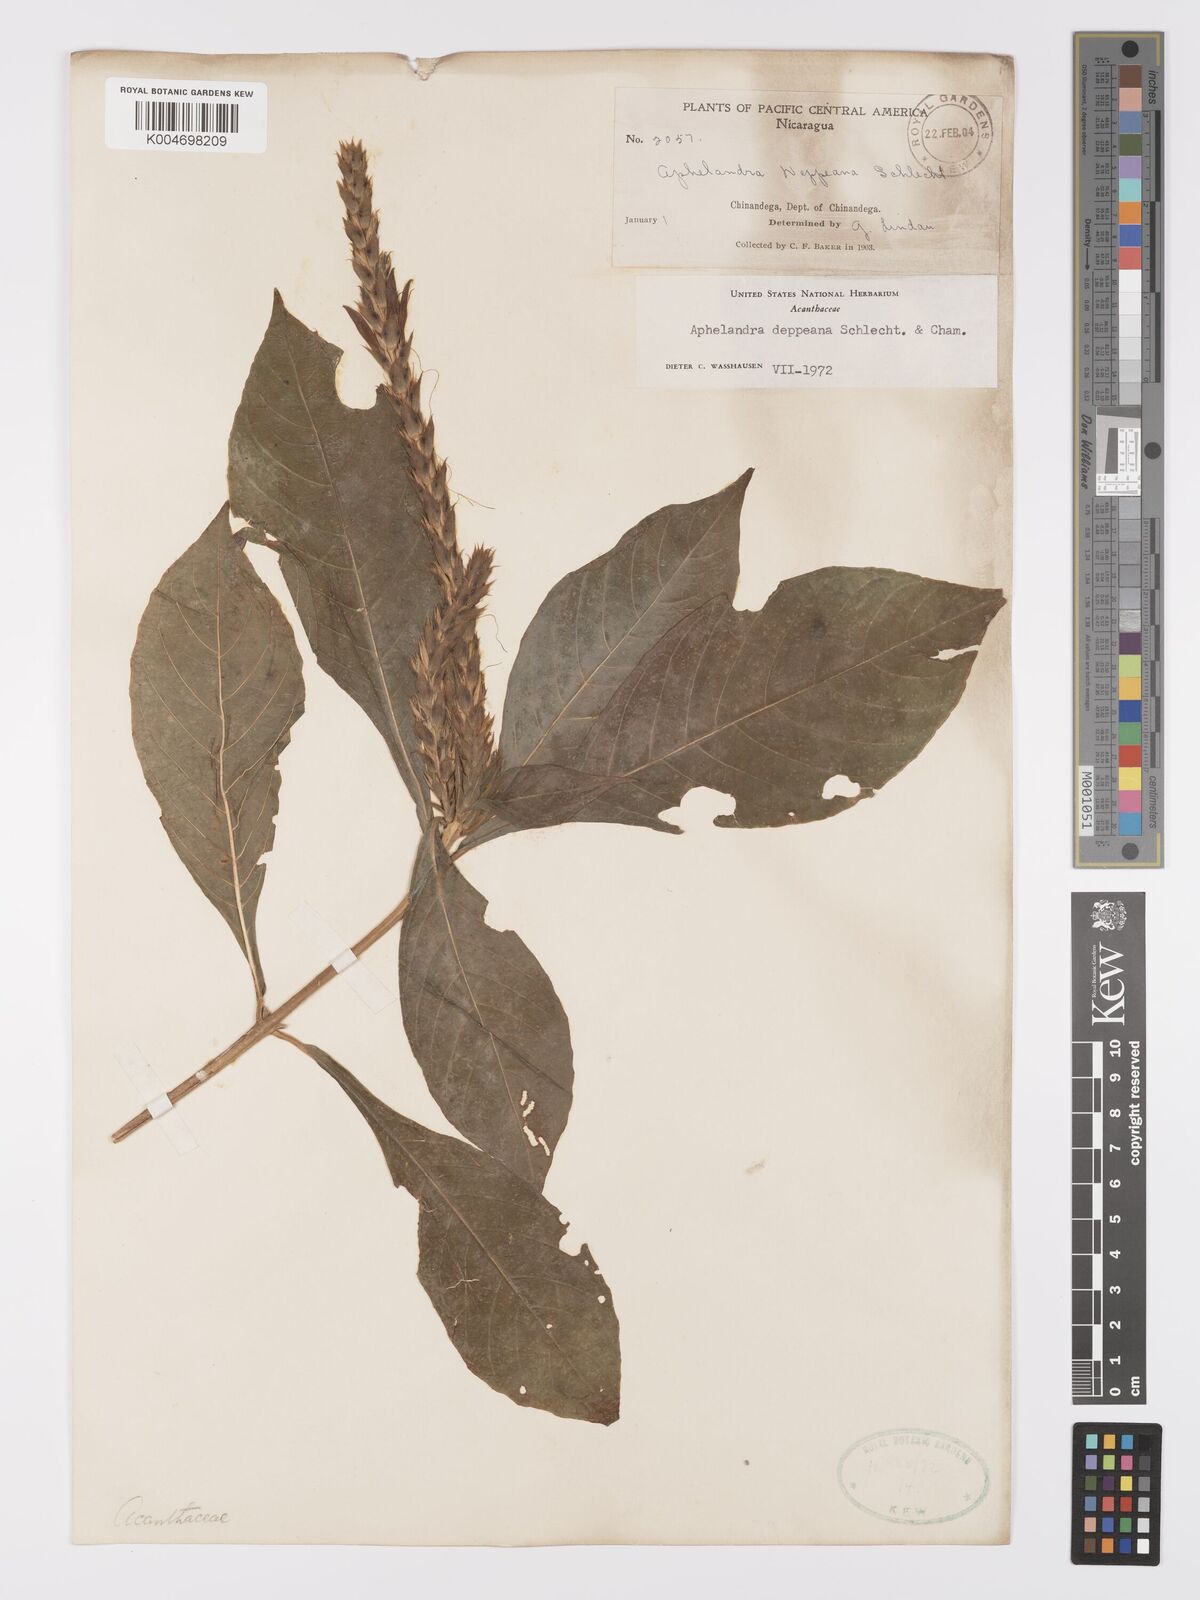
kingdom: Plantae
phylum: Tracheophyta
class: Magnoliopsida
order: Lamiales
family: Acanthaceae
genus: Aphelandra
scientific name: Aphelandra scabra
